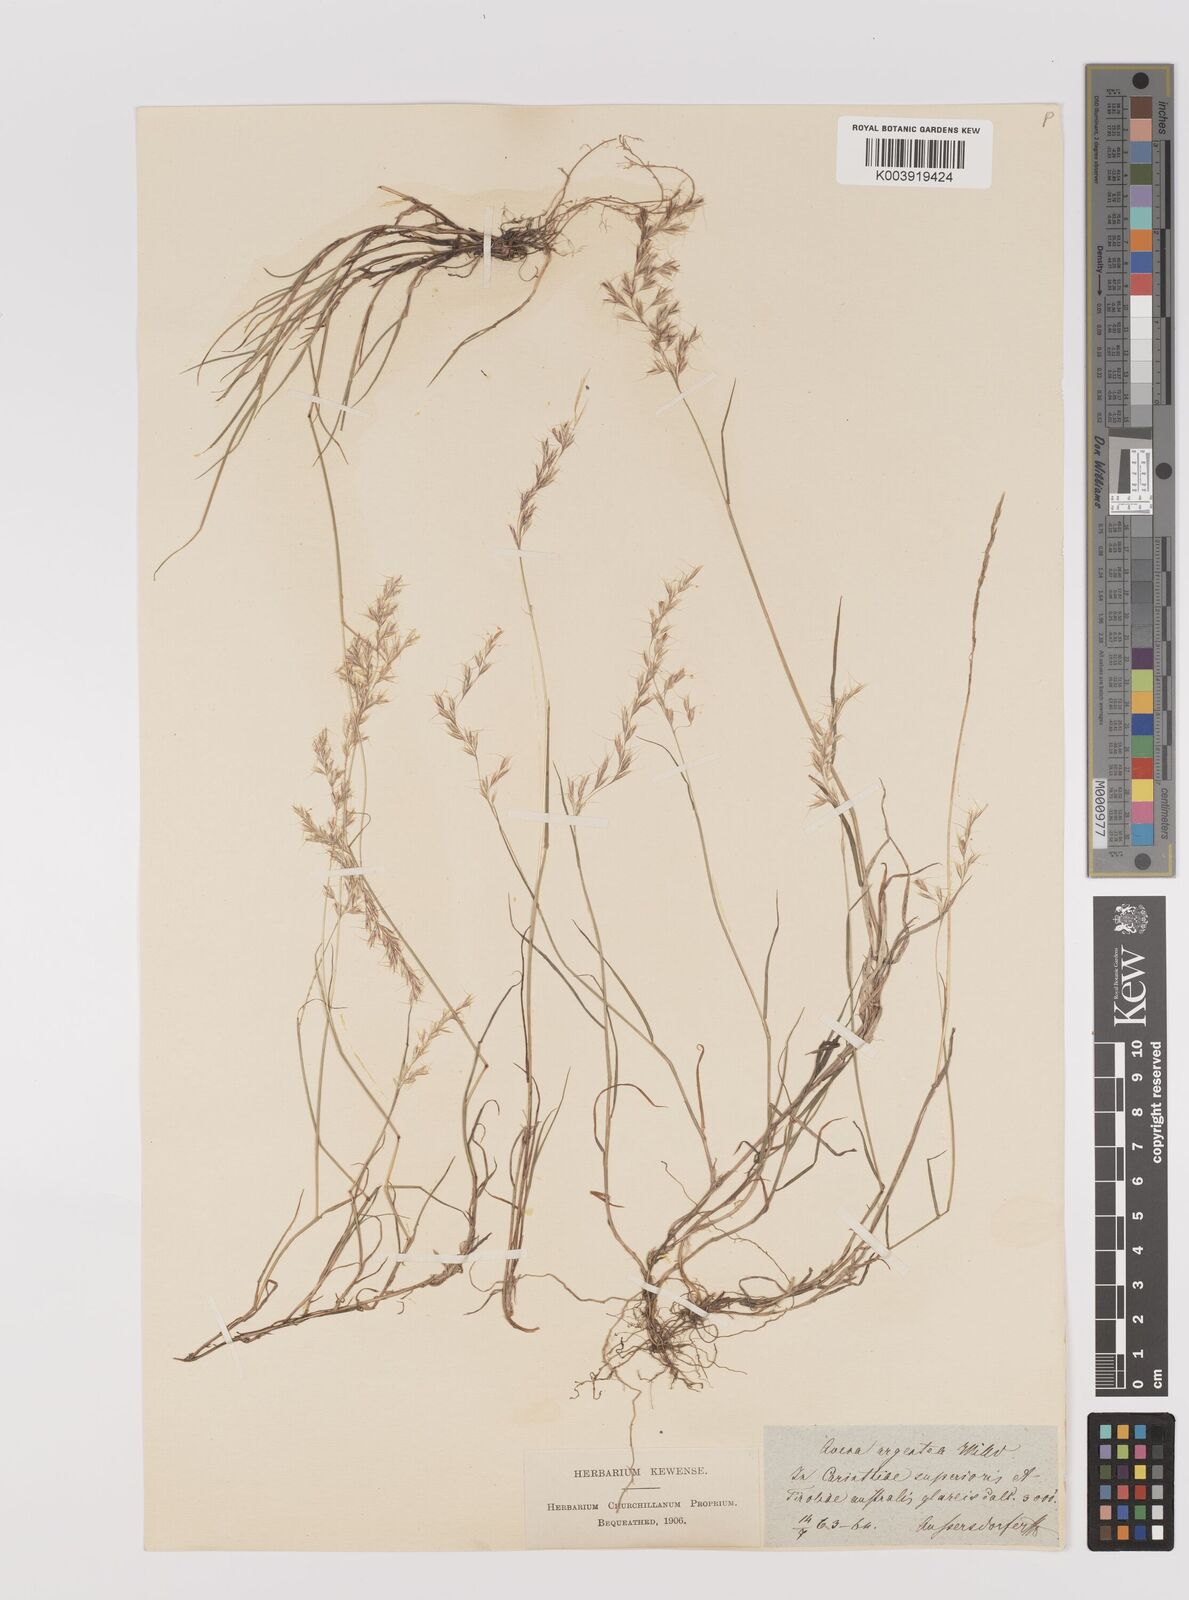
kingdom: Plantae
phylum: Tracheophyta
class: Liliopsida
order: Poales
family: Poaceae
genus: Trisetum
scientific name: Trisetum argenteum
